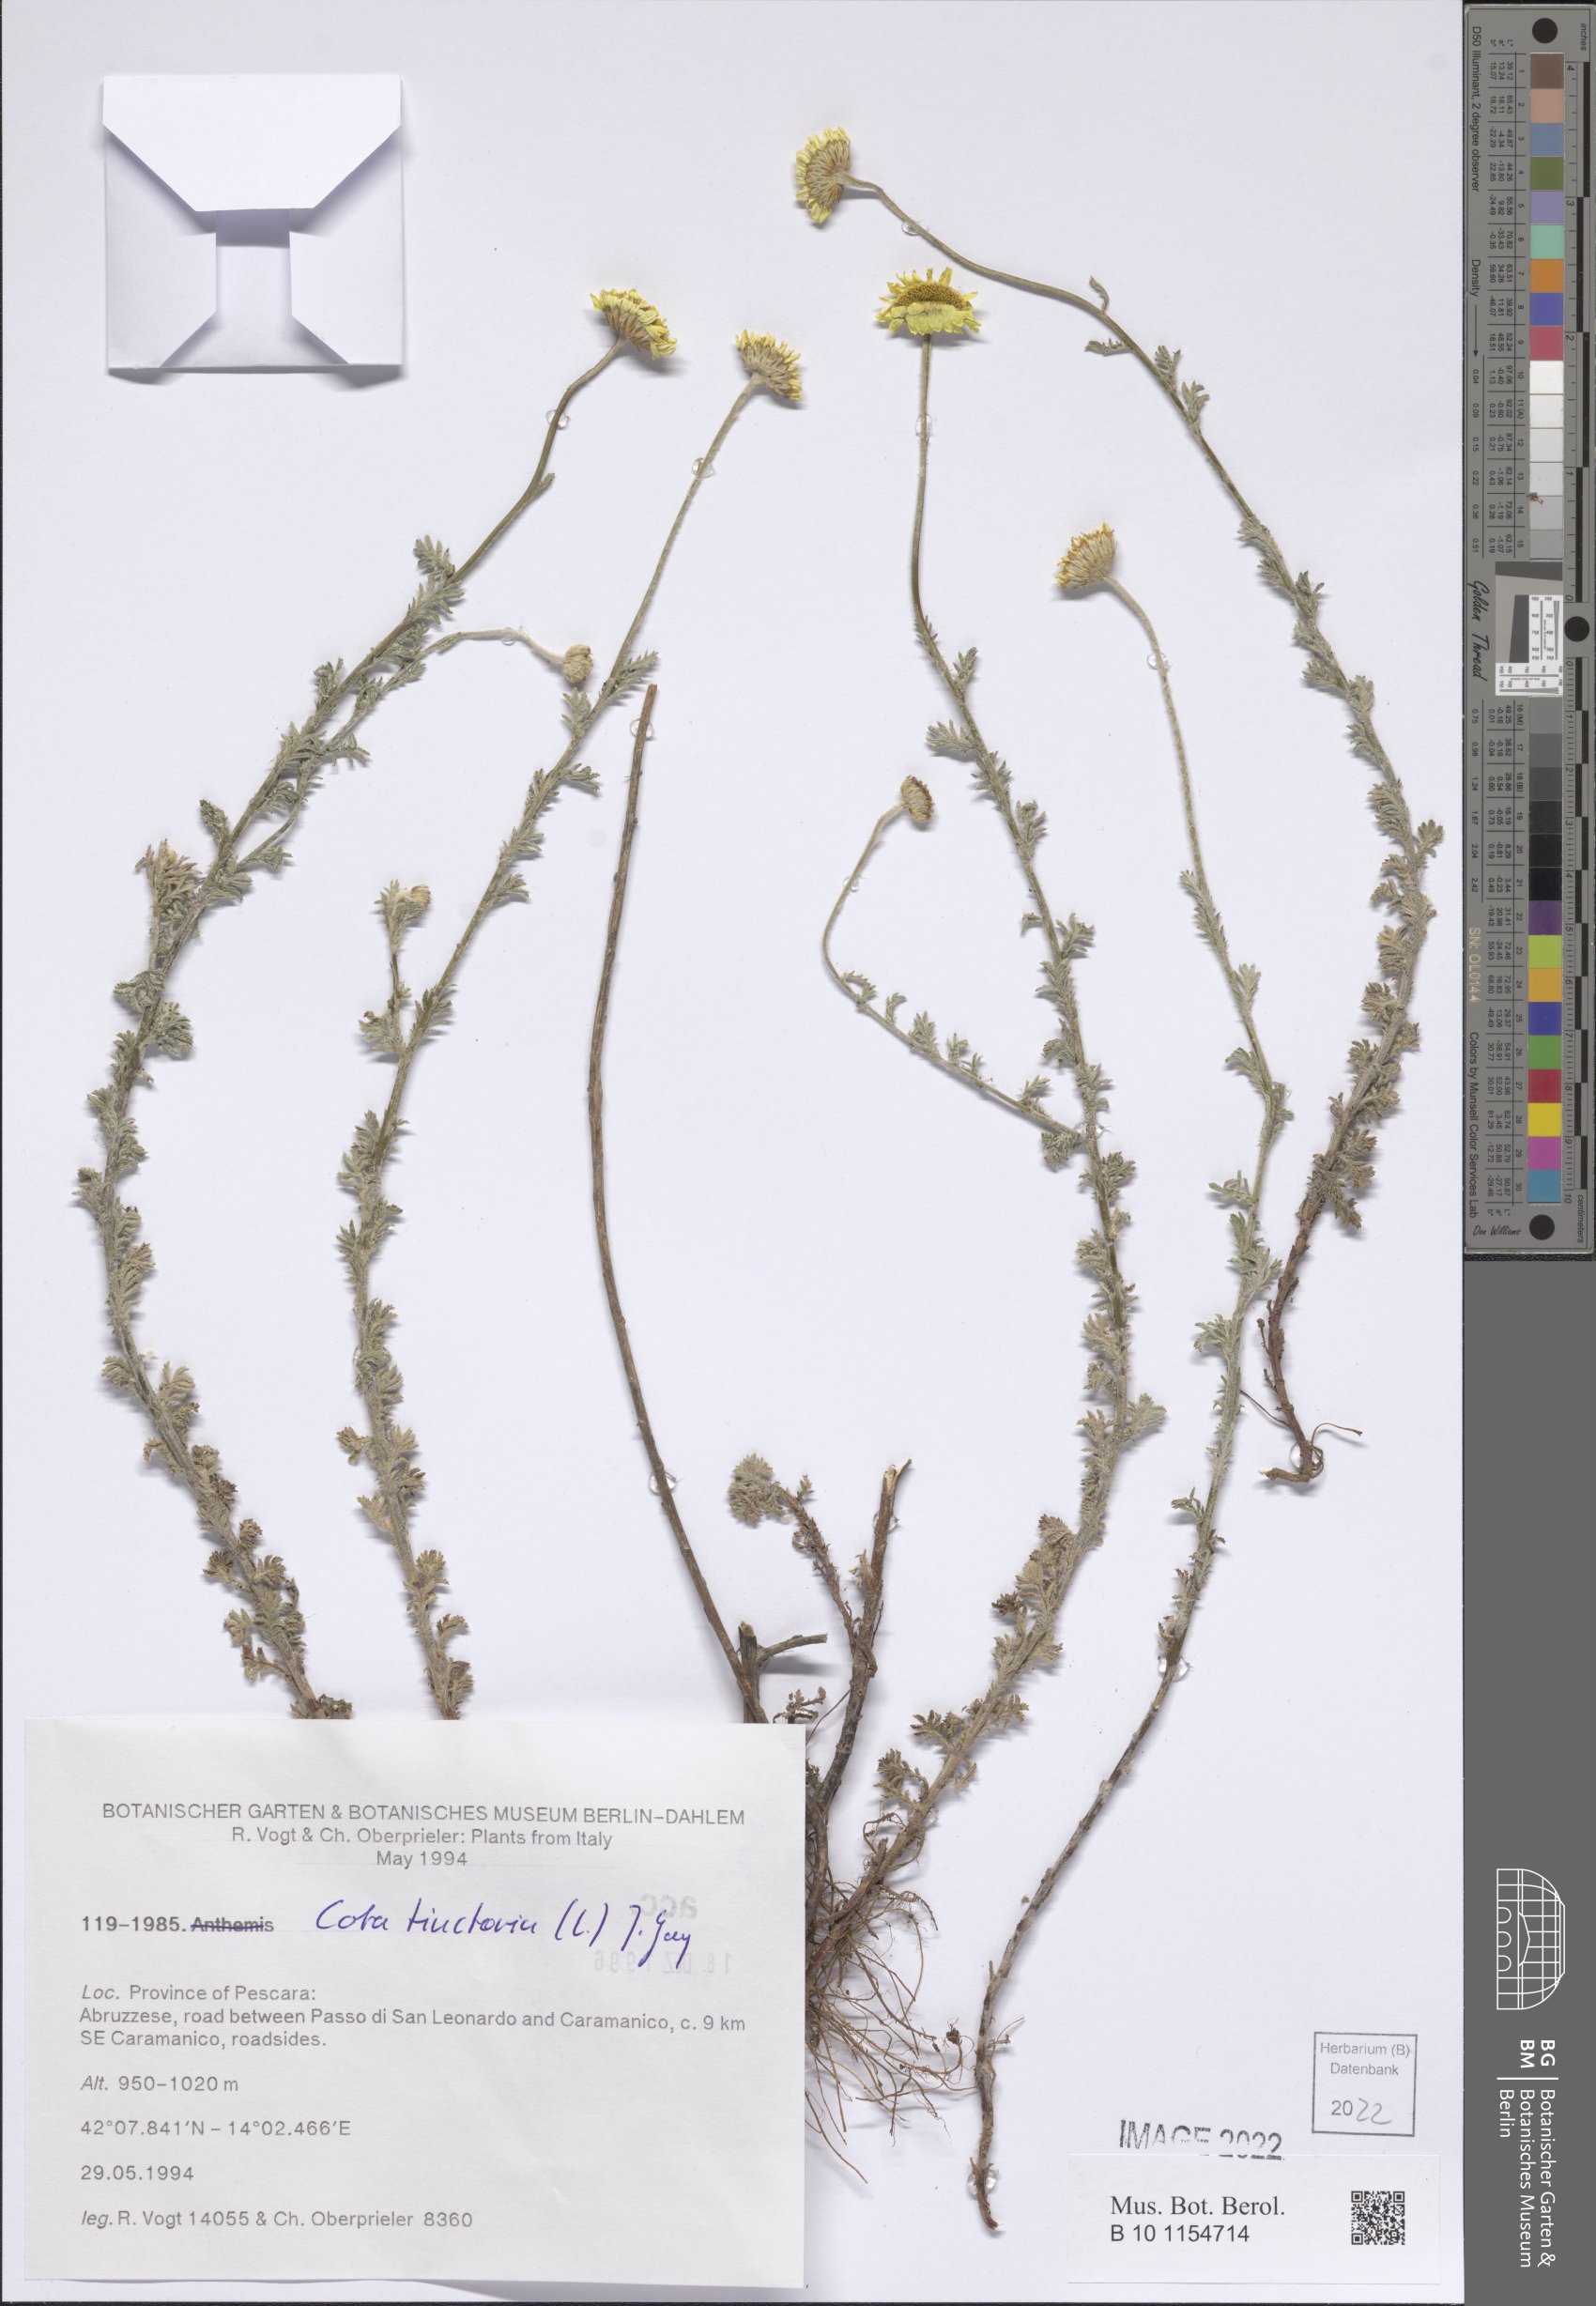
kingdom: Plantae
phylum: Tracheophyta
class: Magnoliopsida
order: Asterales
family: Asteraceae
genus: Cota
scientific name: Cota tinctoria
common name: Golden chamomile
